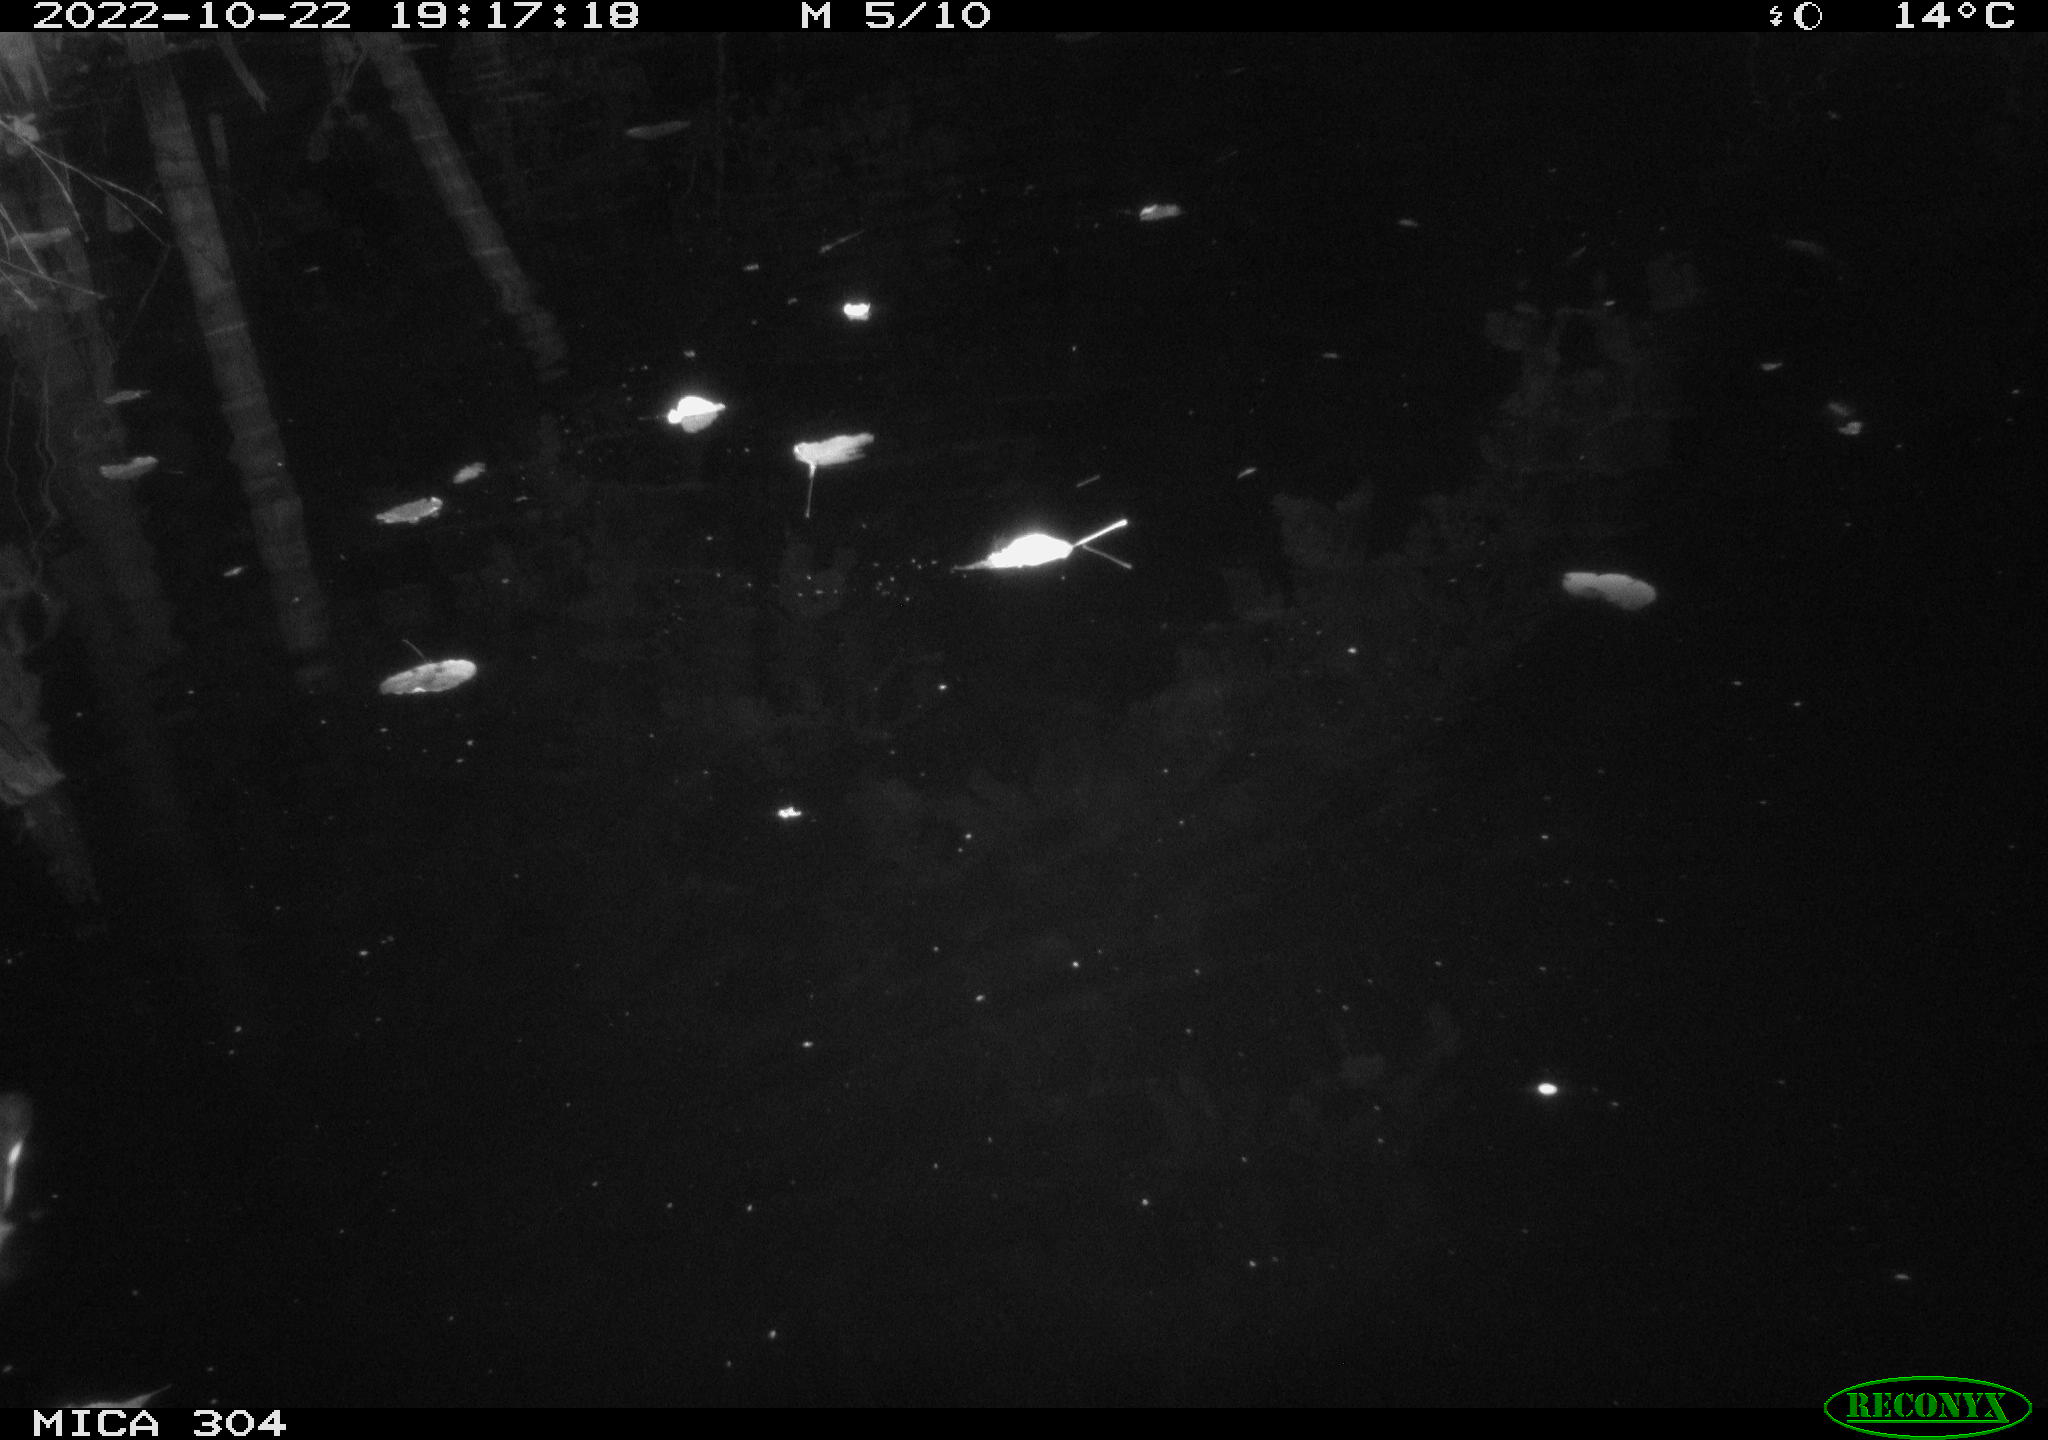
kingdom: Animalia
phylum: Chordata
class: Mammalia
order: Rodentia
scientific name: Rodentia
